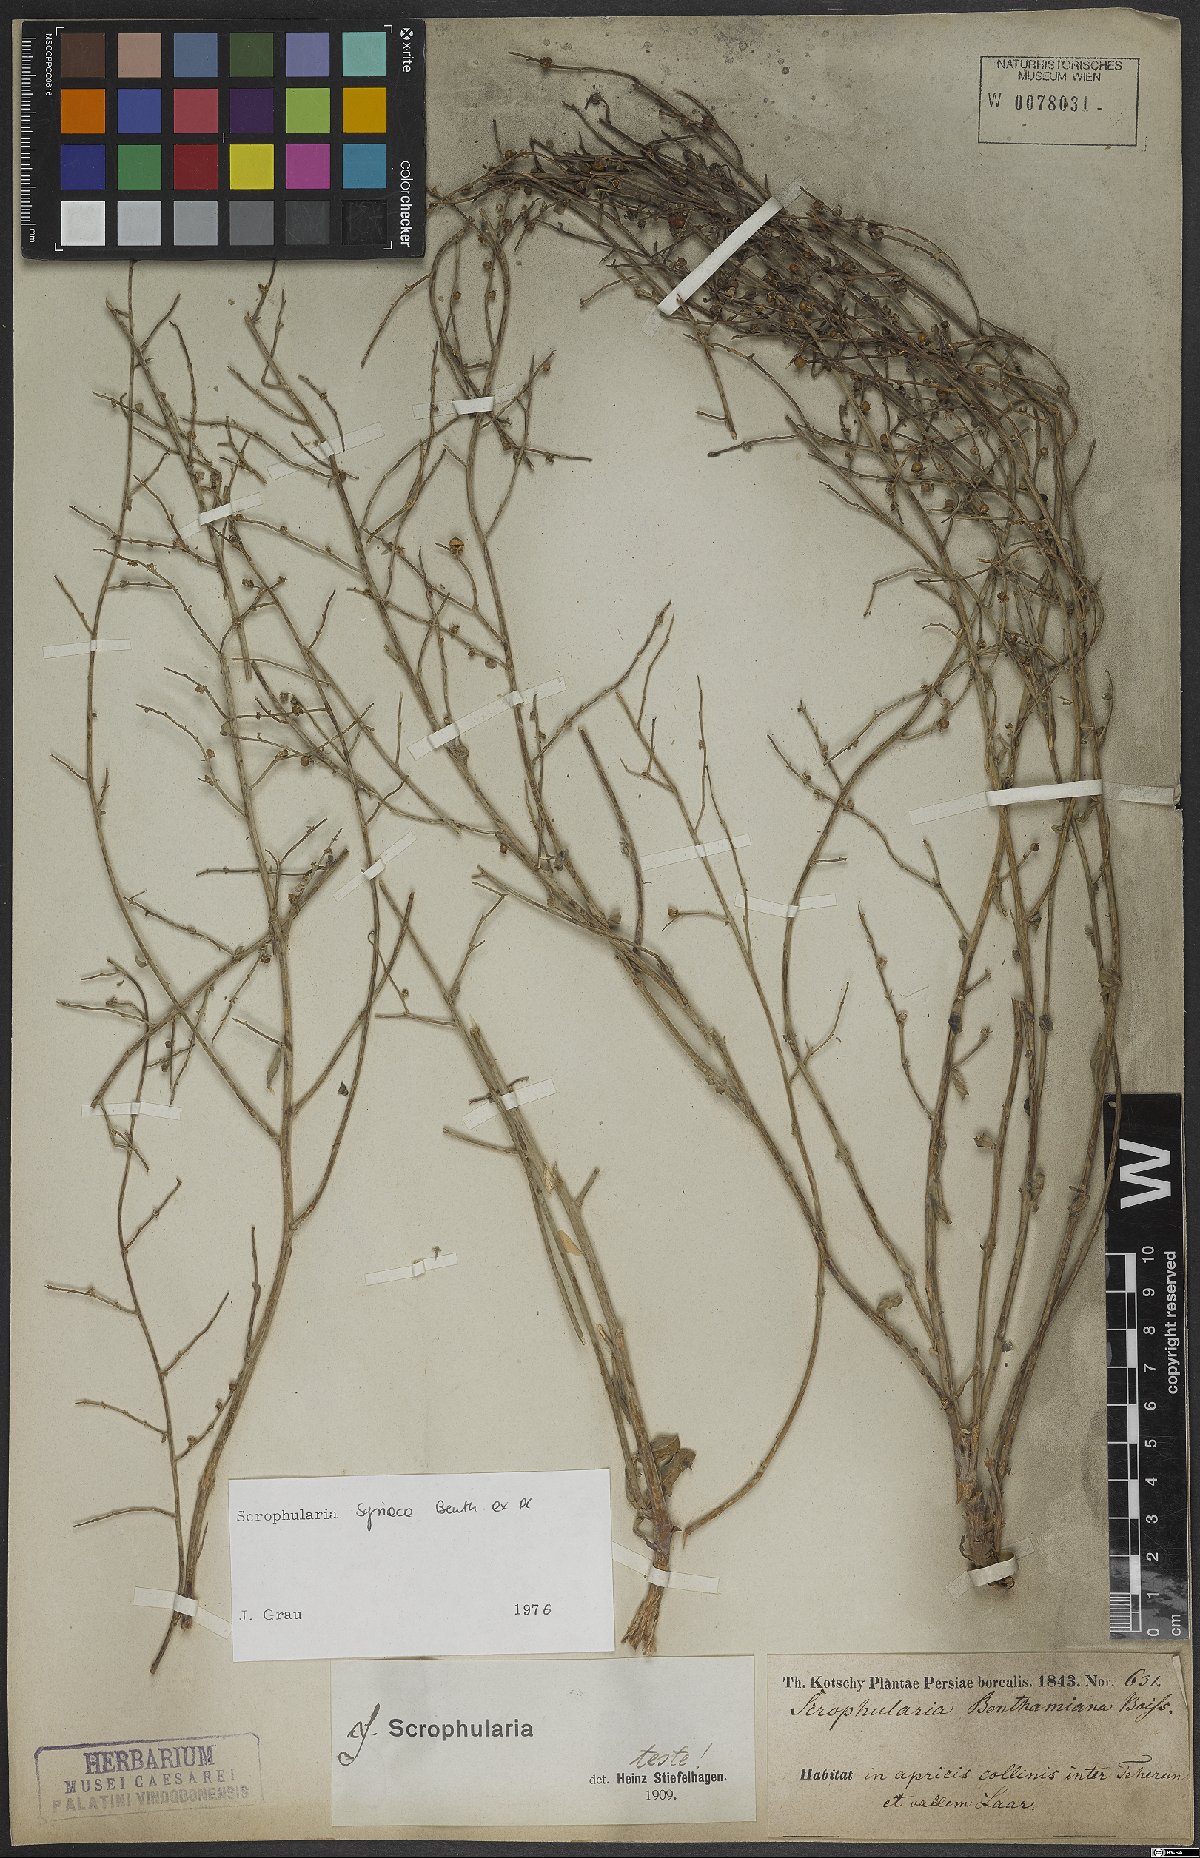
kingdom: Plantae
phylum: Tracheophyta
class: Magnoliopsida
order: Lamiales
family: Scrophulariaceae
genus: Scrophularia
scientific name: Scrophularia hypericifolia
